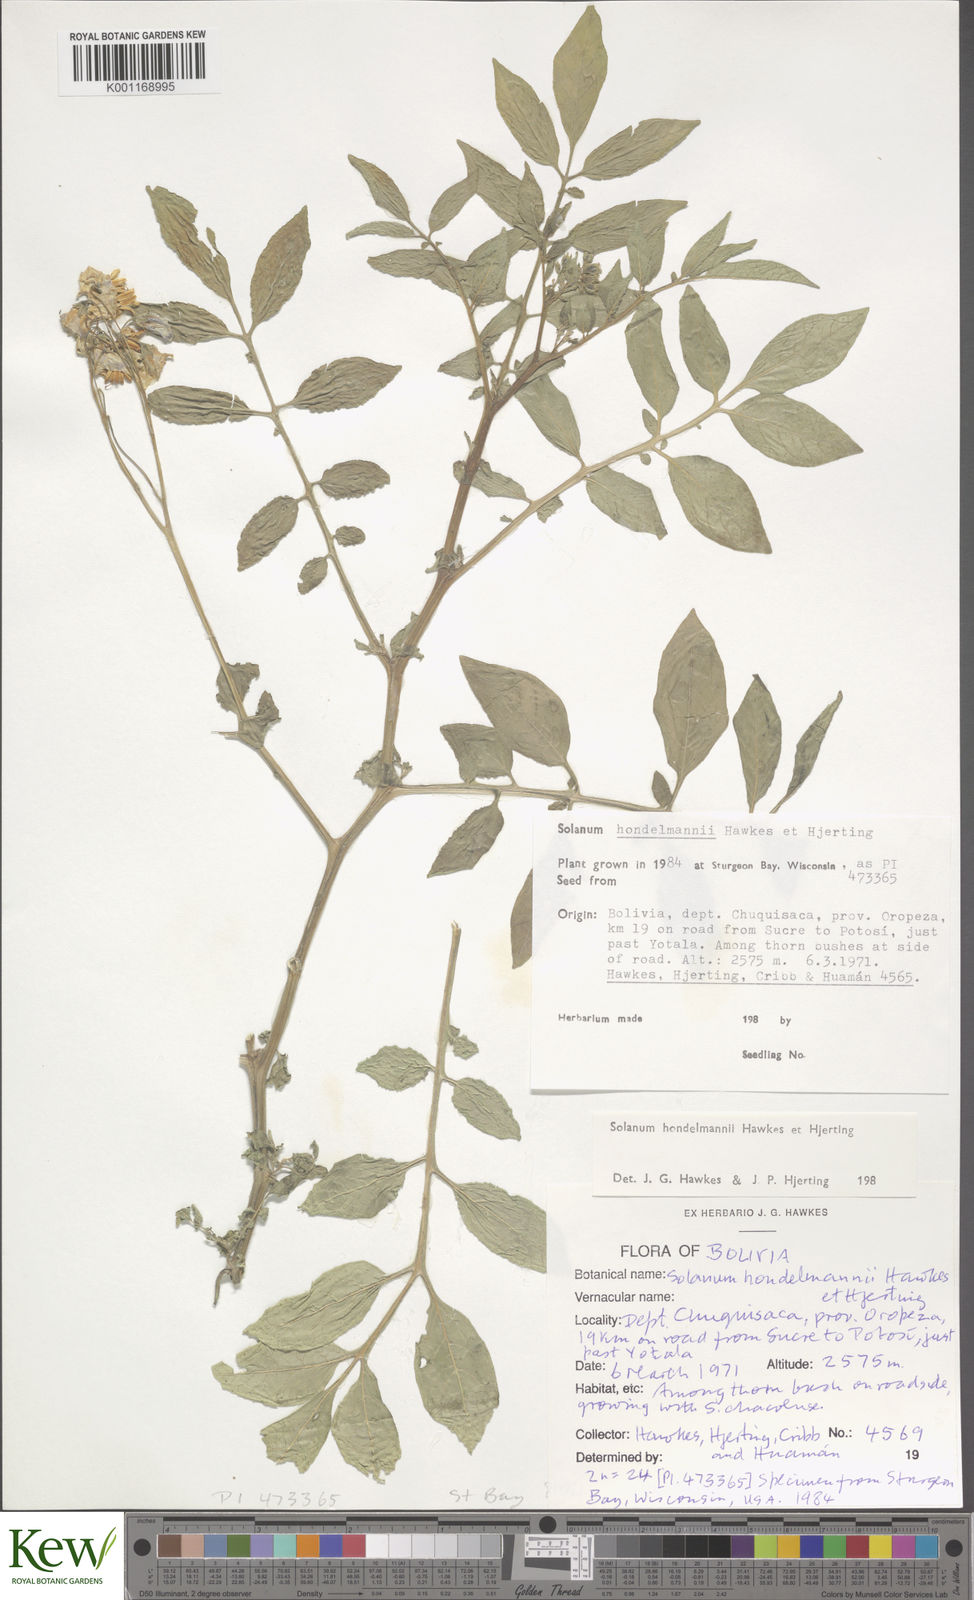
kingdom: Plantae
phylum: Tracheophyta
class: Magnoliopsida
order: Solanales
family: Solanaceae
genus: Solanum
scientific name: Solanum brevicaule
